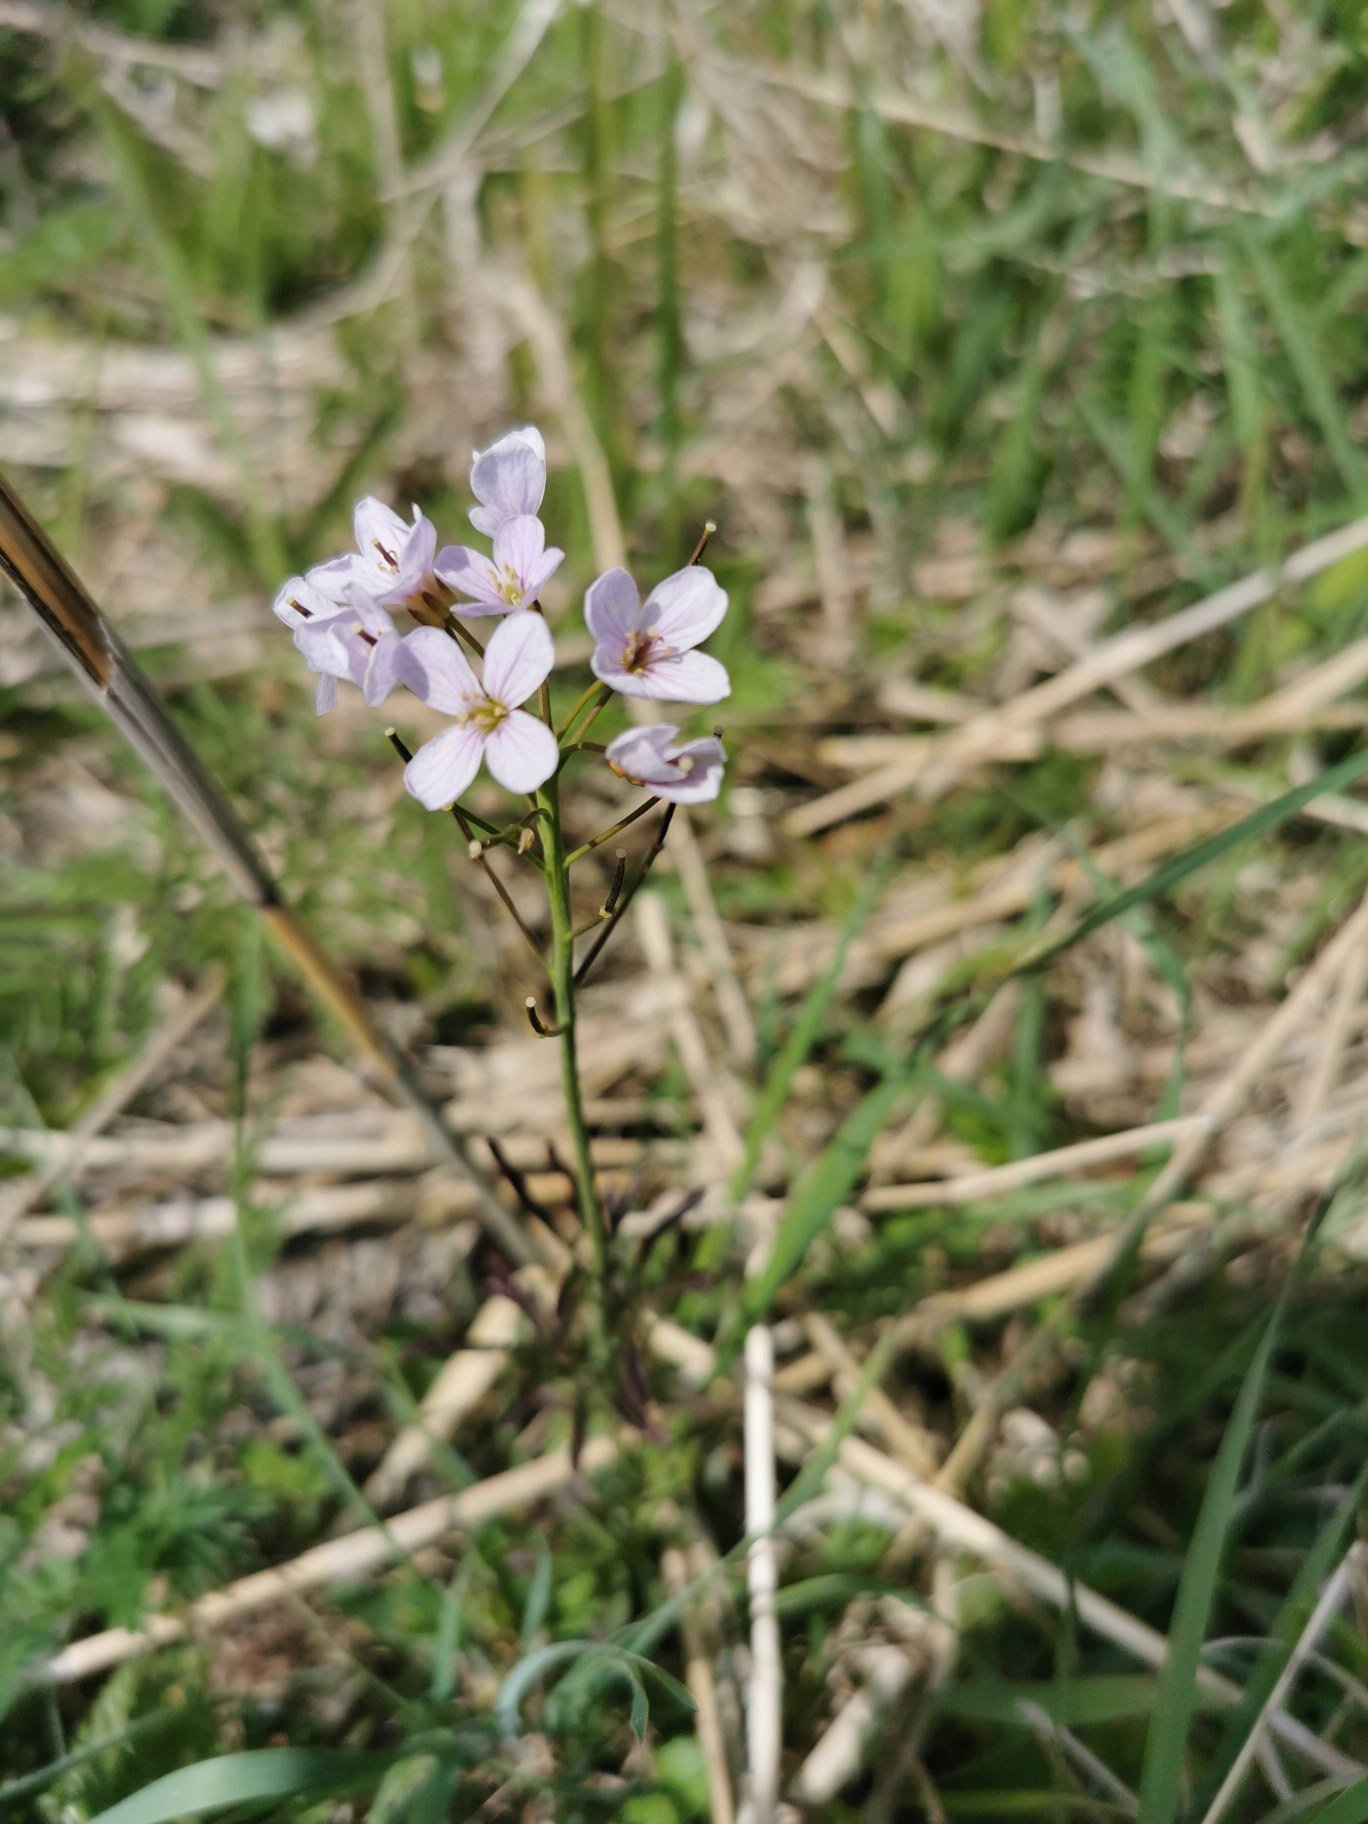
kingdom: Plantae
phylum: Tracheophyta
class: Magnoliopsida
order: Brassicales
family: Brassicaceae
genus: Cardamine
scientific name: Cardamine pratensis
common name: Engkarse
